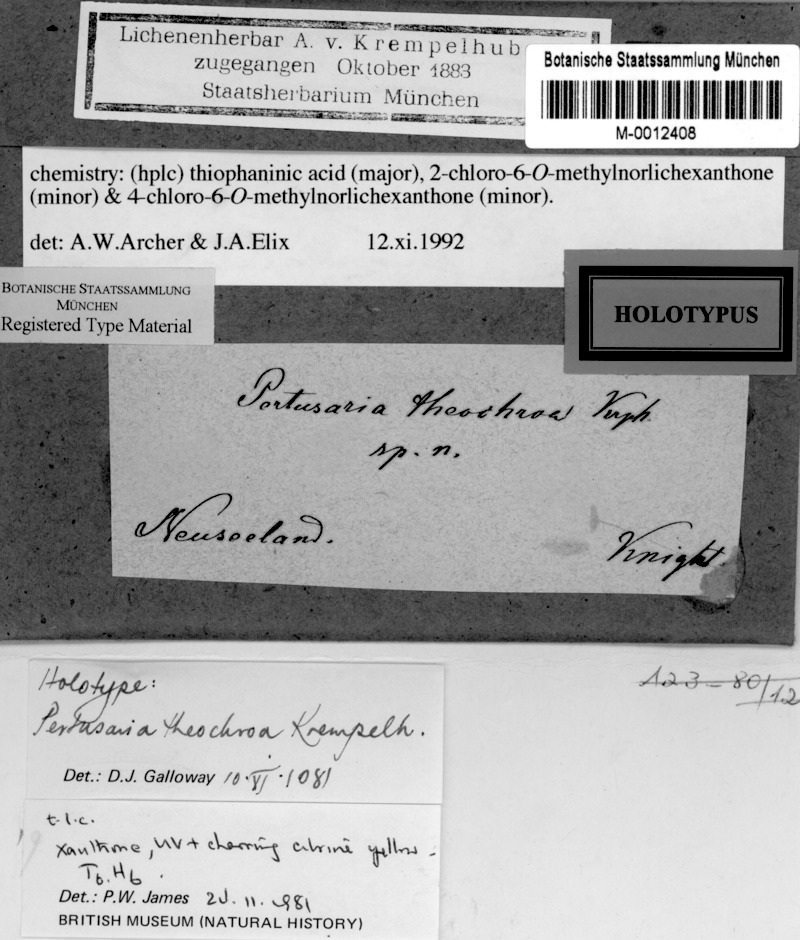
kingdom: Fungi
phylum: Ascomycota
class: Lecanoromycetes
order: Pertusariales
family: Pertusariaceae
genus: Pertusaria
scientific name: Pertusaria
